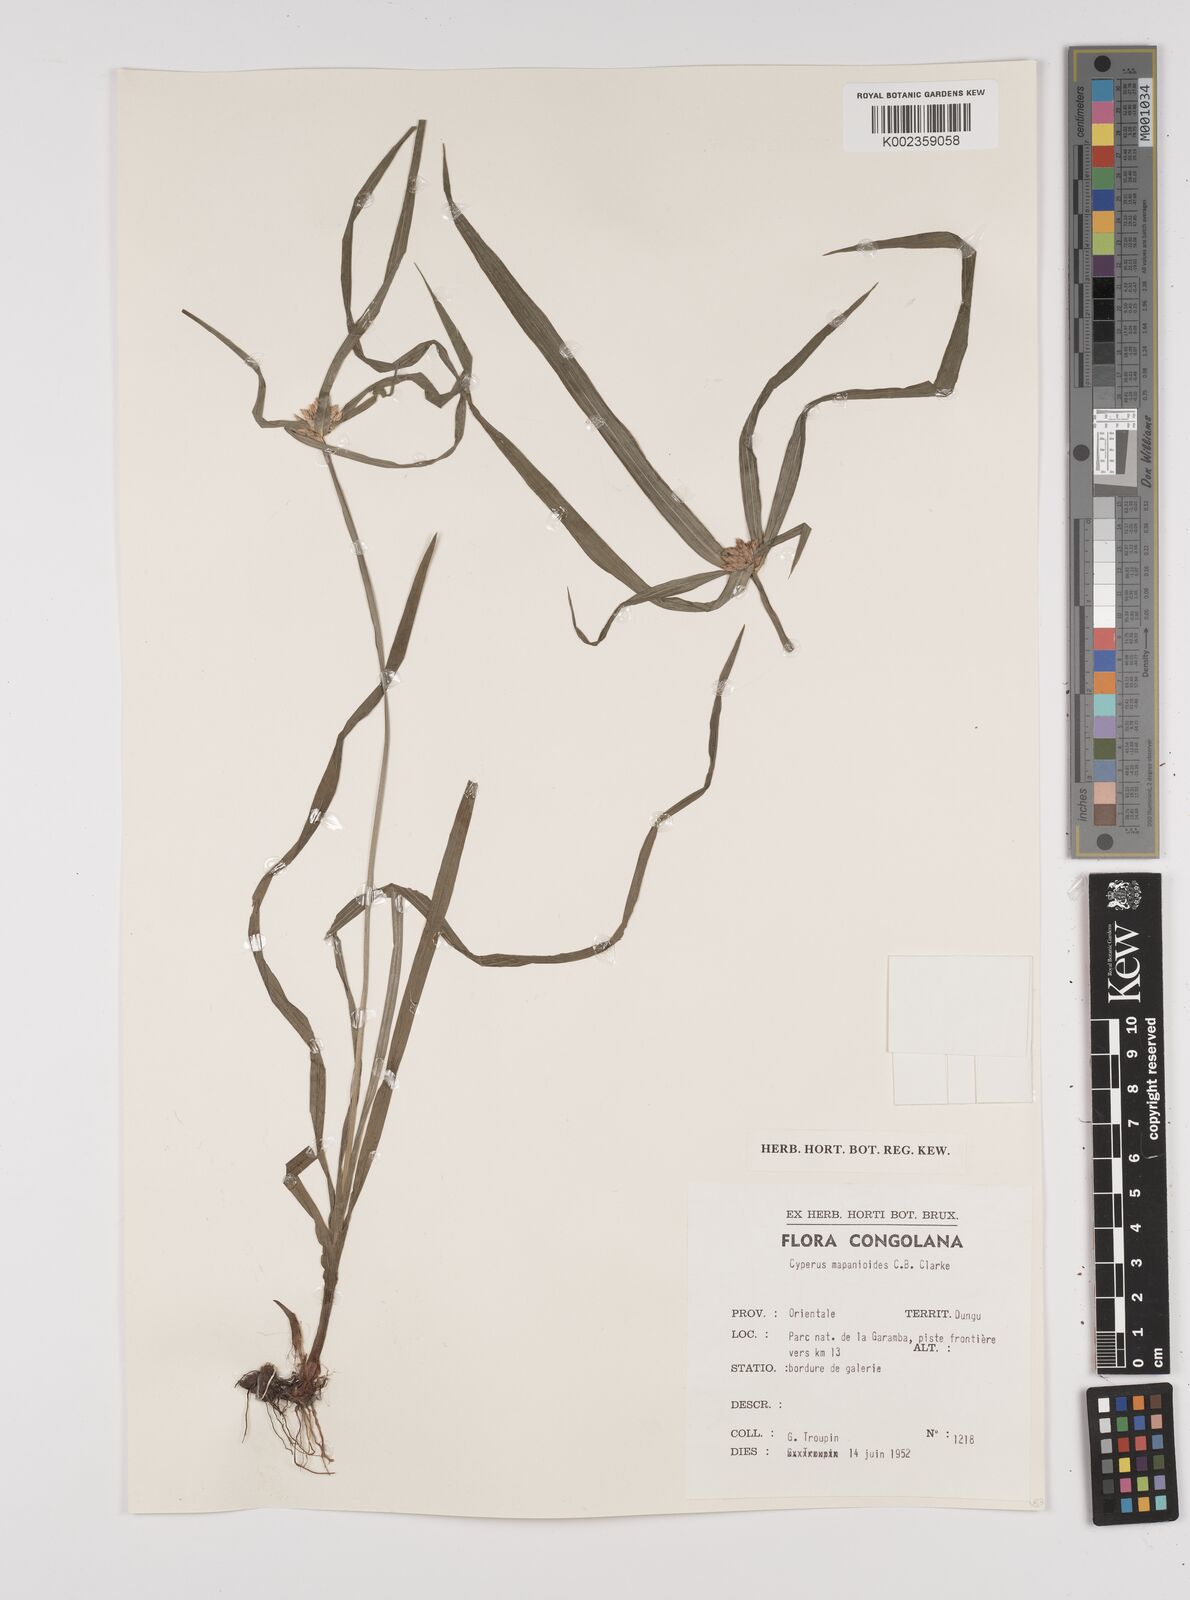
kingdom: Plantae
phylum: Tracheophyta
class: Liliopsida
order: Poales
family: Cyperaceae
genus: Cyperus
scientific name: Cyperus mapanioides
